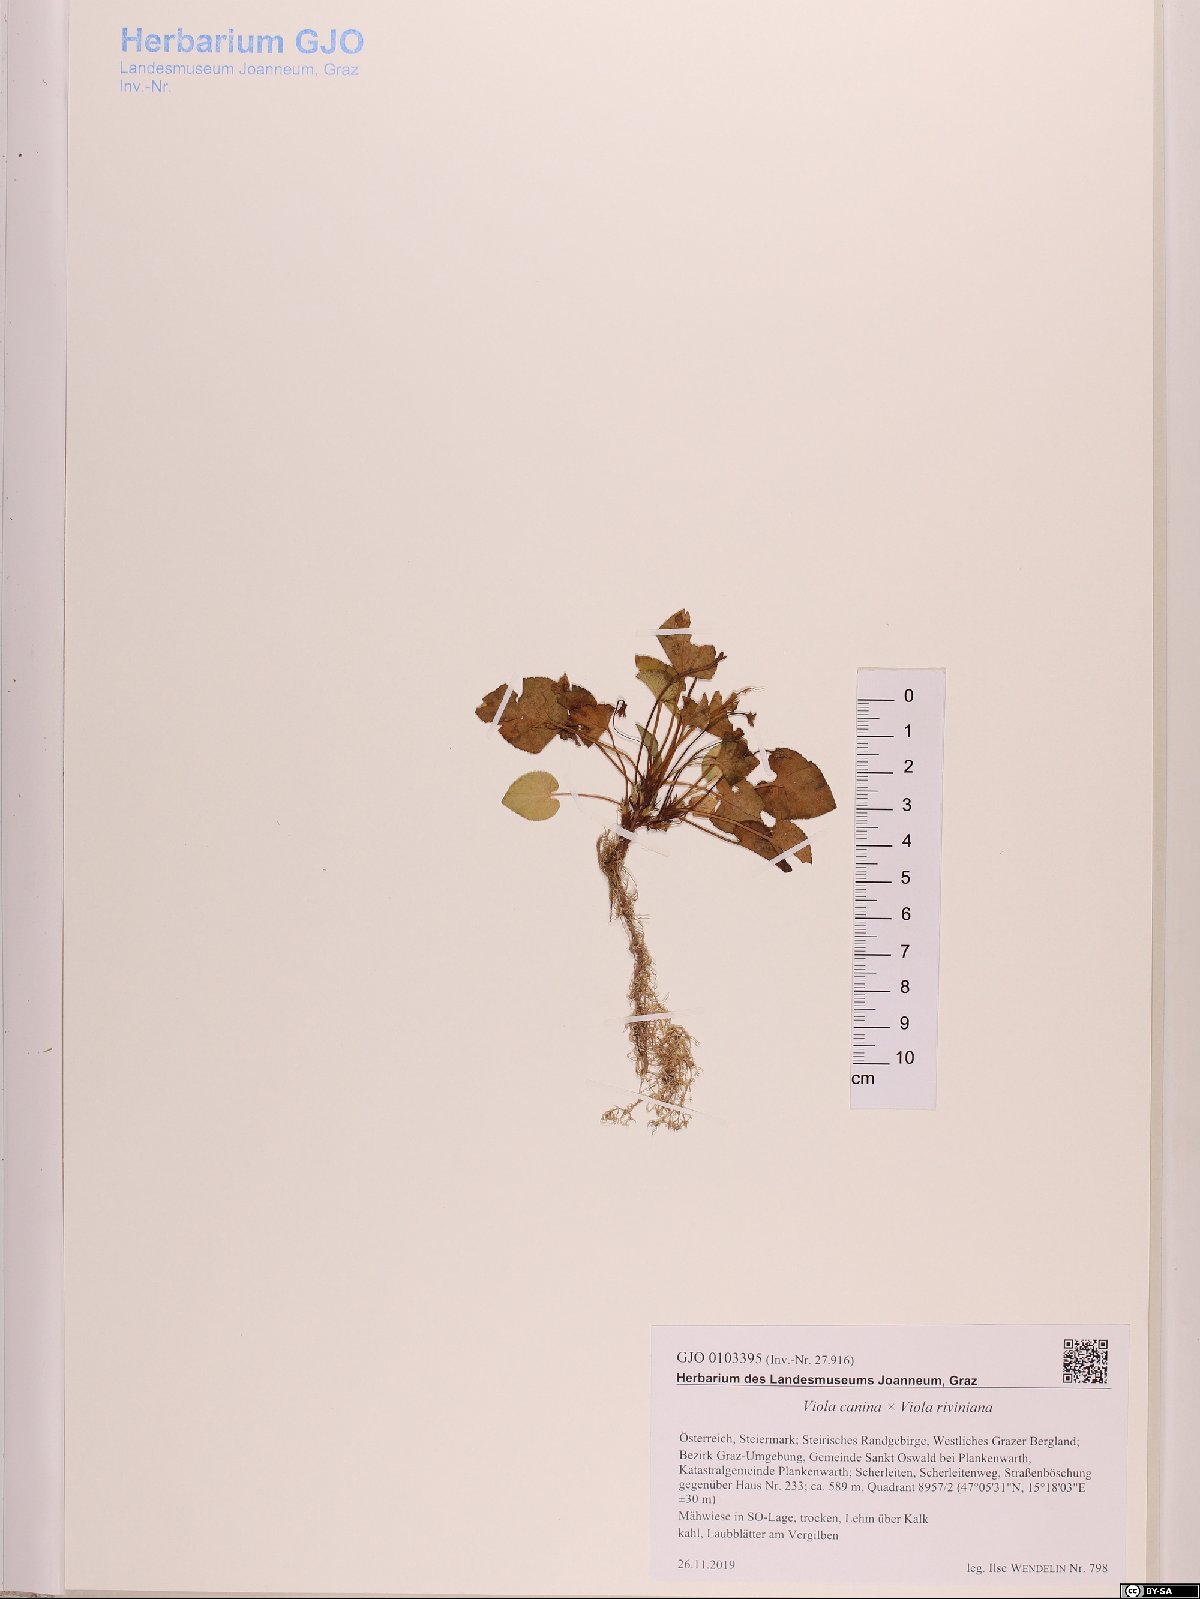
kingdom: Plantae
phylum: Tracheophyta
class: Magnoliopsida
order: Malpighiales
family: Violaceae
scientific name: Violaceae
